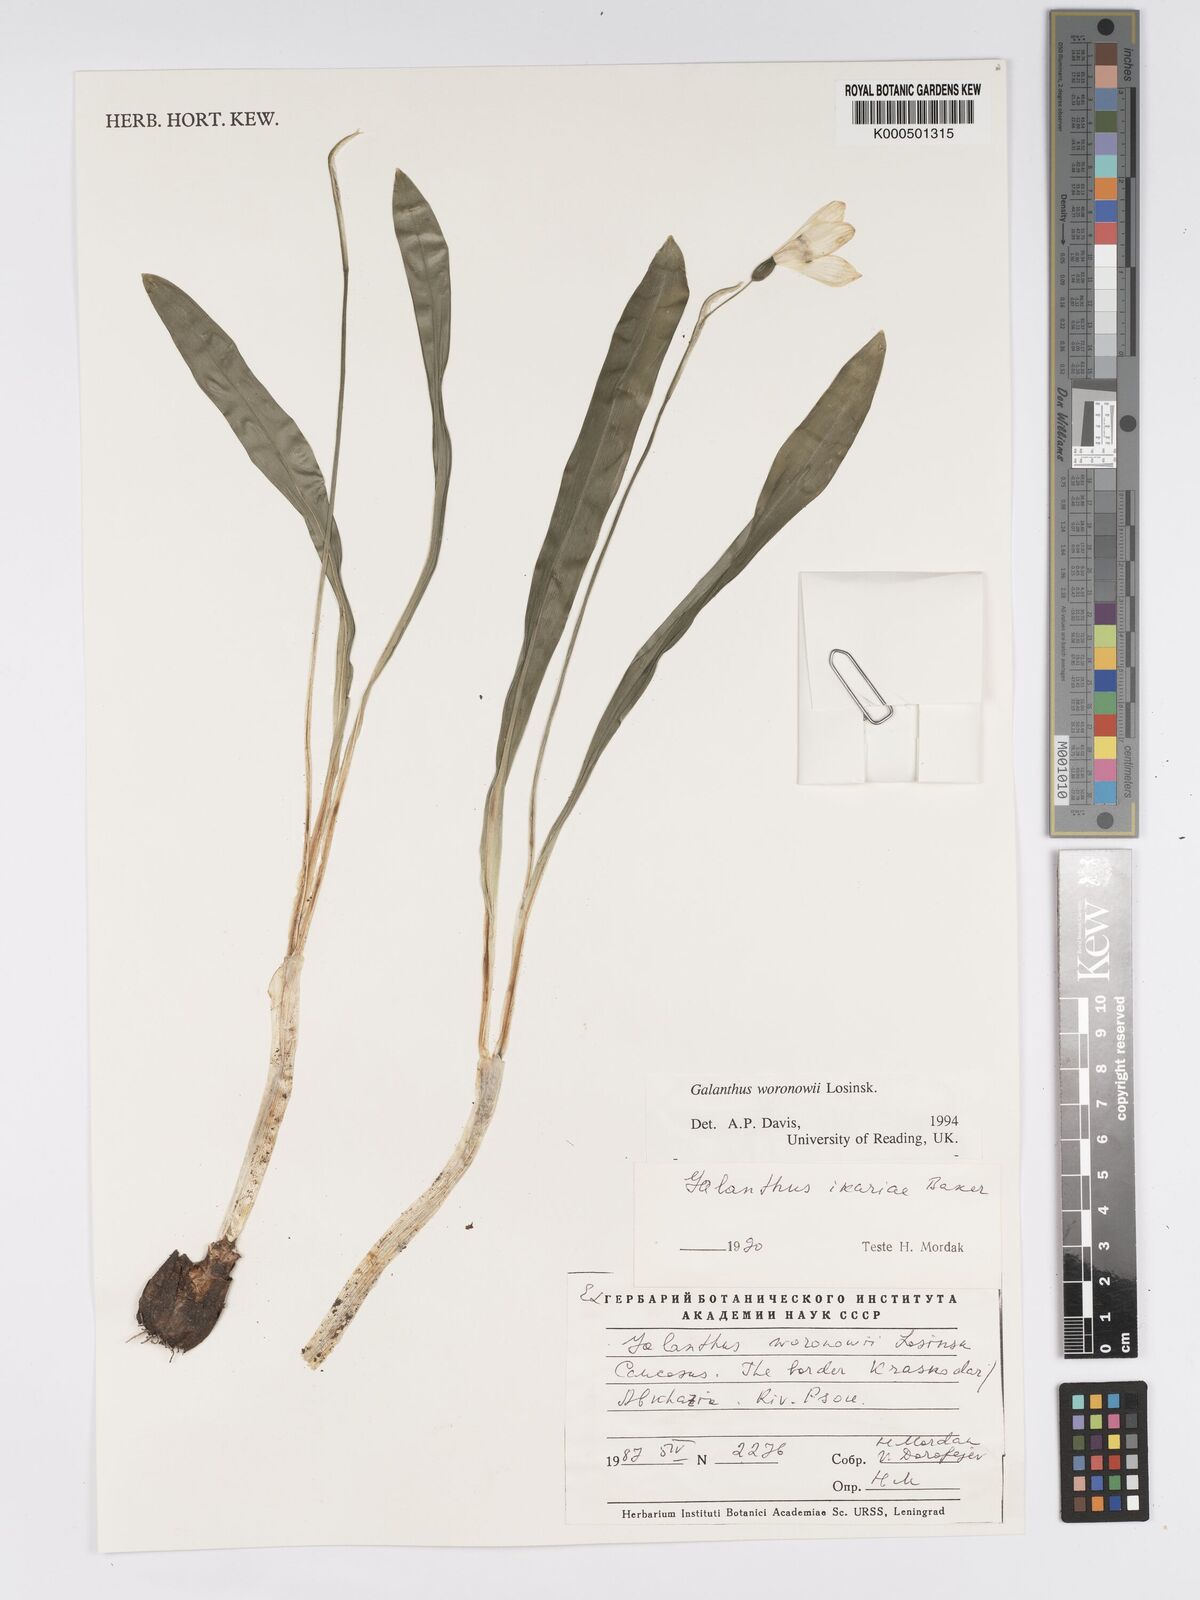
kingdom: Plantae
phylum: Tracheophyta
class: Liliopsida
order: Asparagales
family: Amaryllidaceae
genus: Galanthus
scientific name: Galanthus woronowii
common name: Green snowdrop
